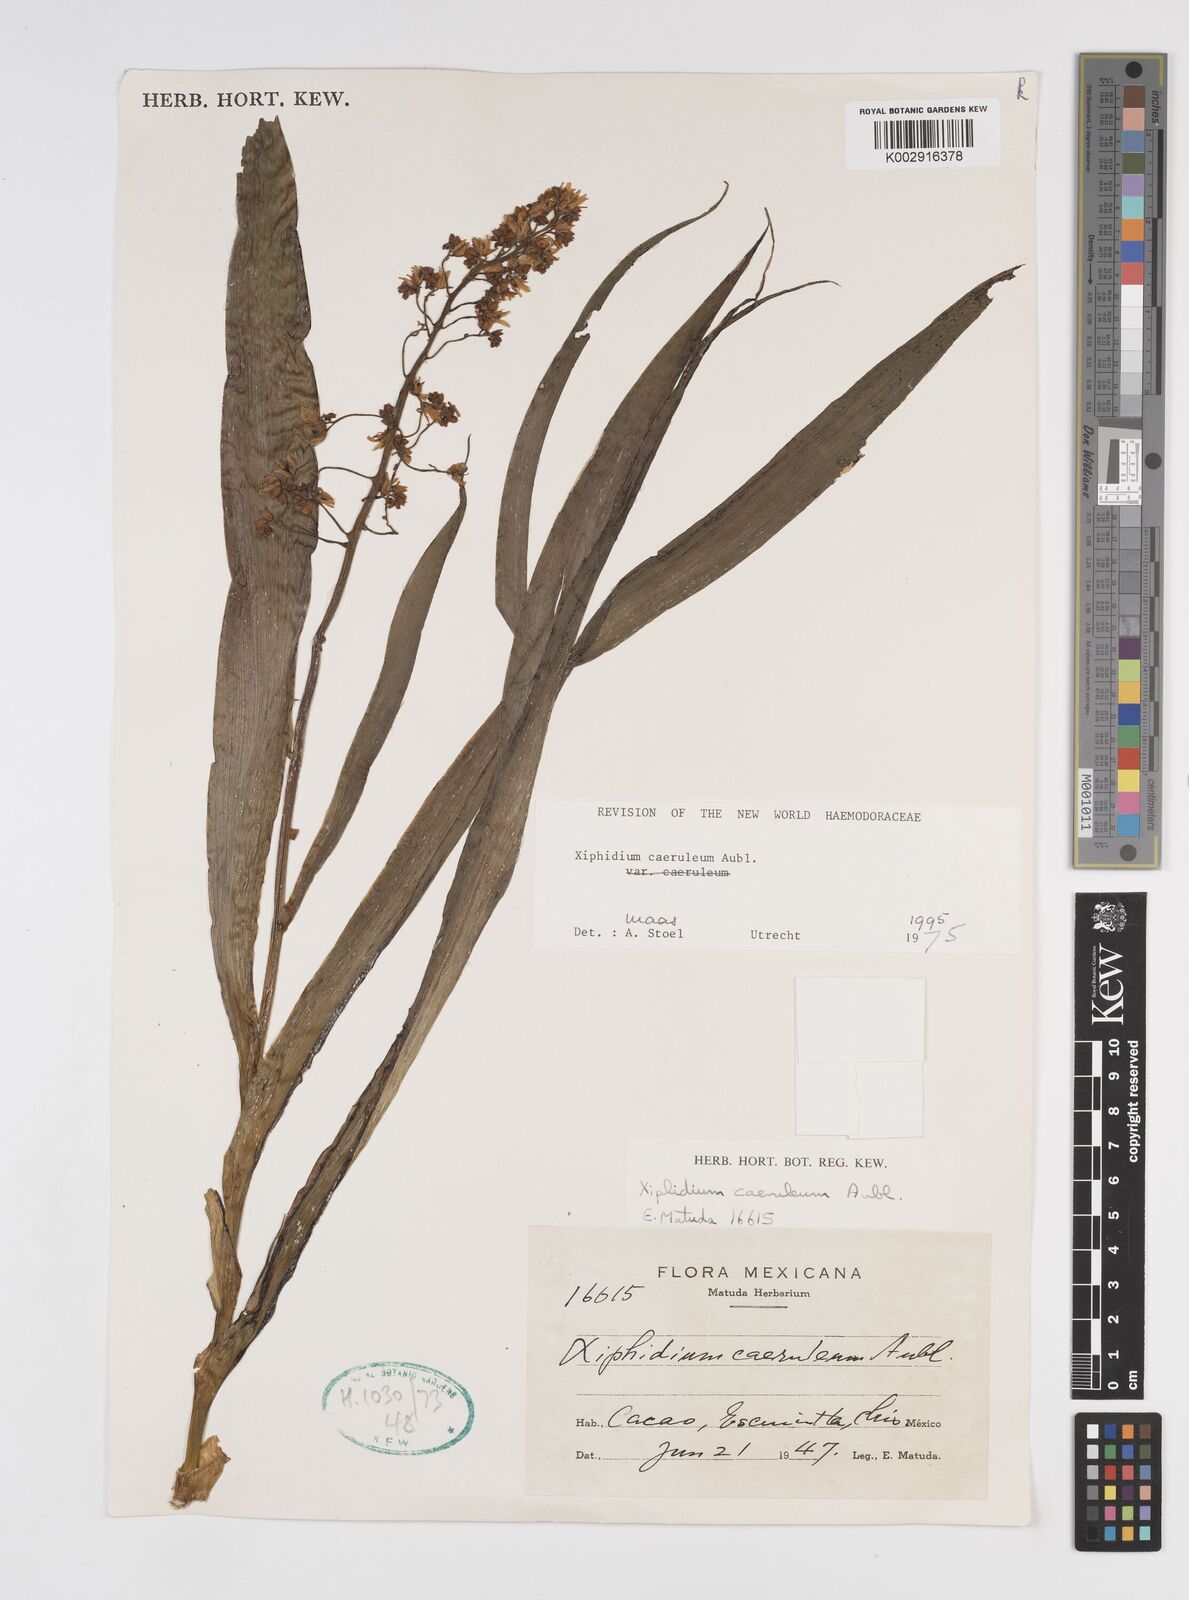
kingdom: Plantae
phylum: Tracheophyta
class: Liliopsida
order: Commelinales
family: Haemodoraceae
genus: Xiphidium
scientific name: Xiphidium caeruleum
